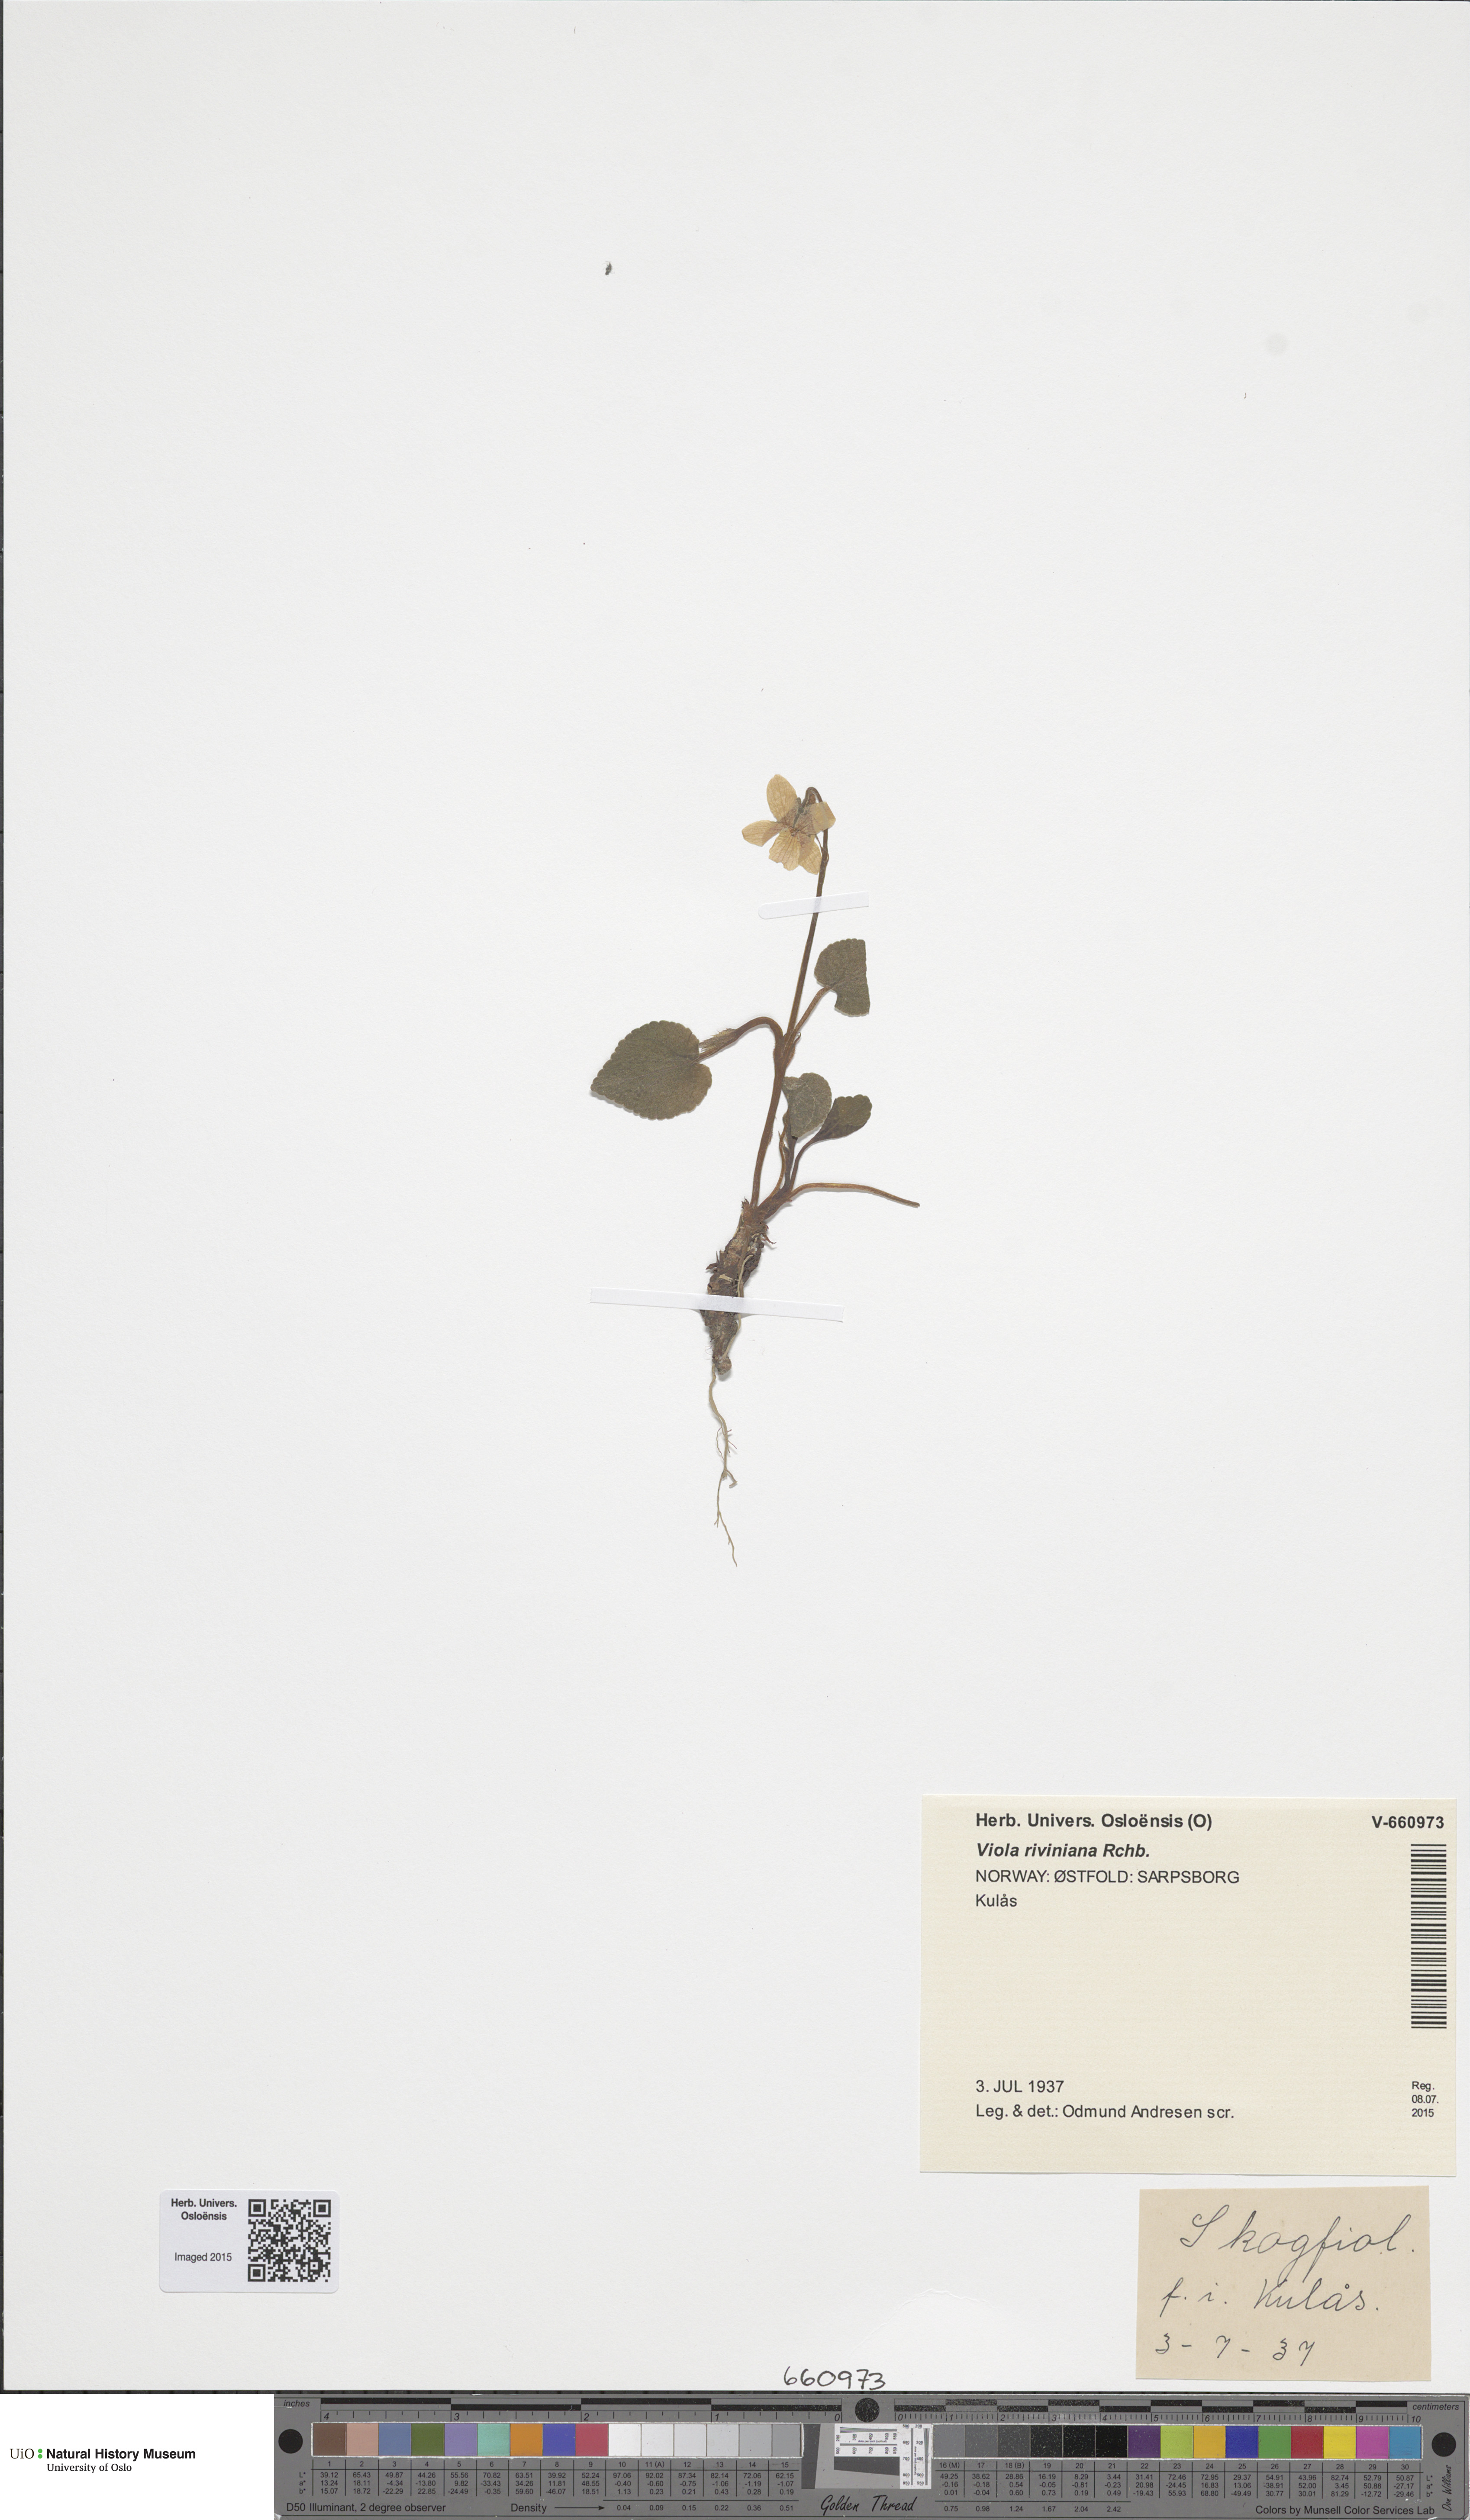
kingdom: Plantae
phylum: Tracheophyta
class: Magnoliopsida
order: Malpighiales
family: Violaceae
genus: Viola
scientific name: Viola riviniana
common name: Common dog-violet
